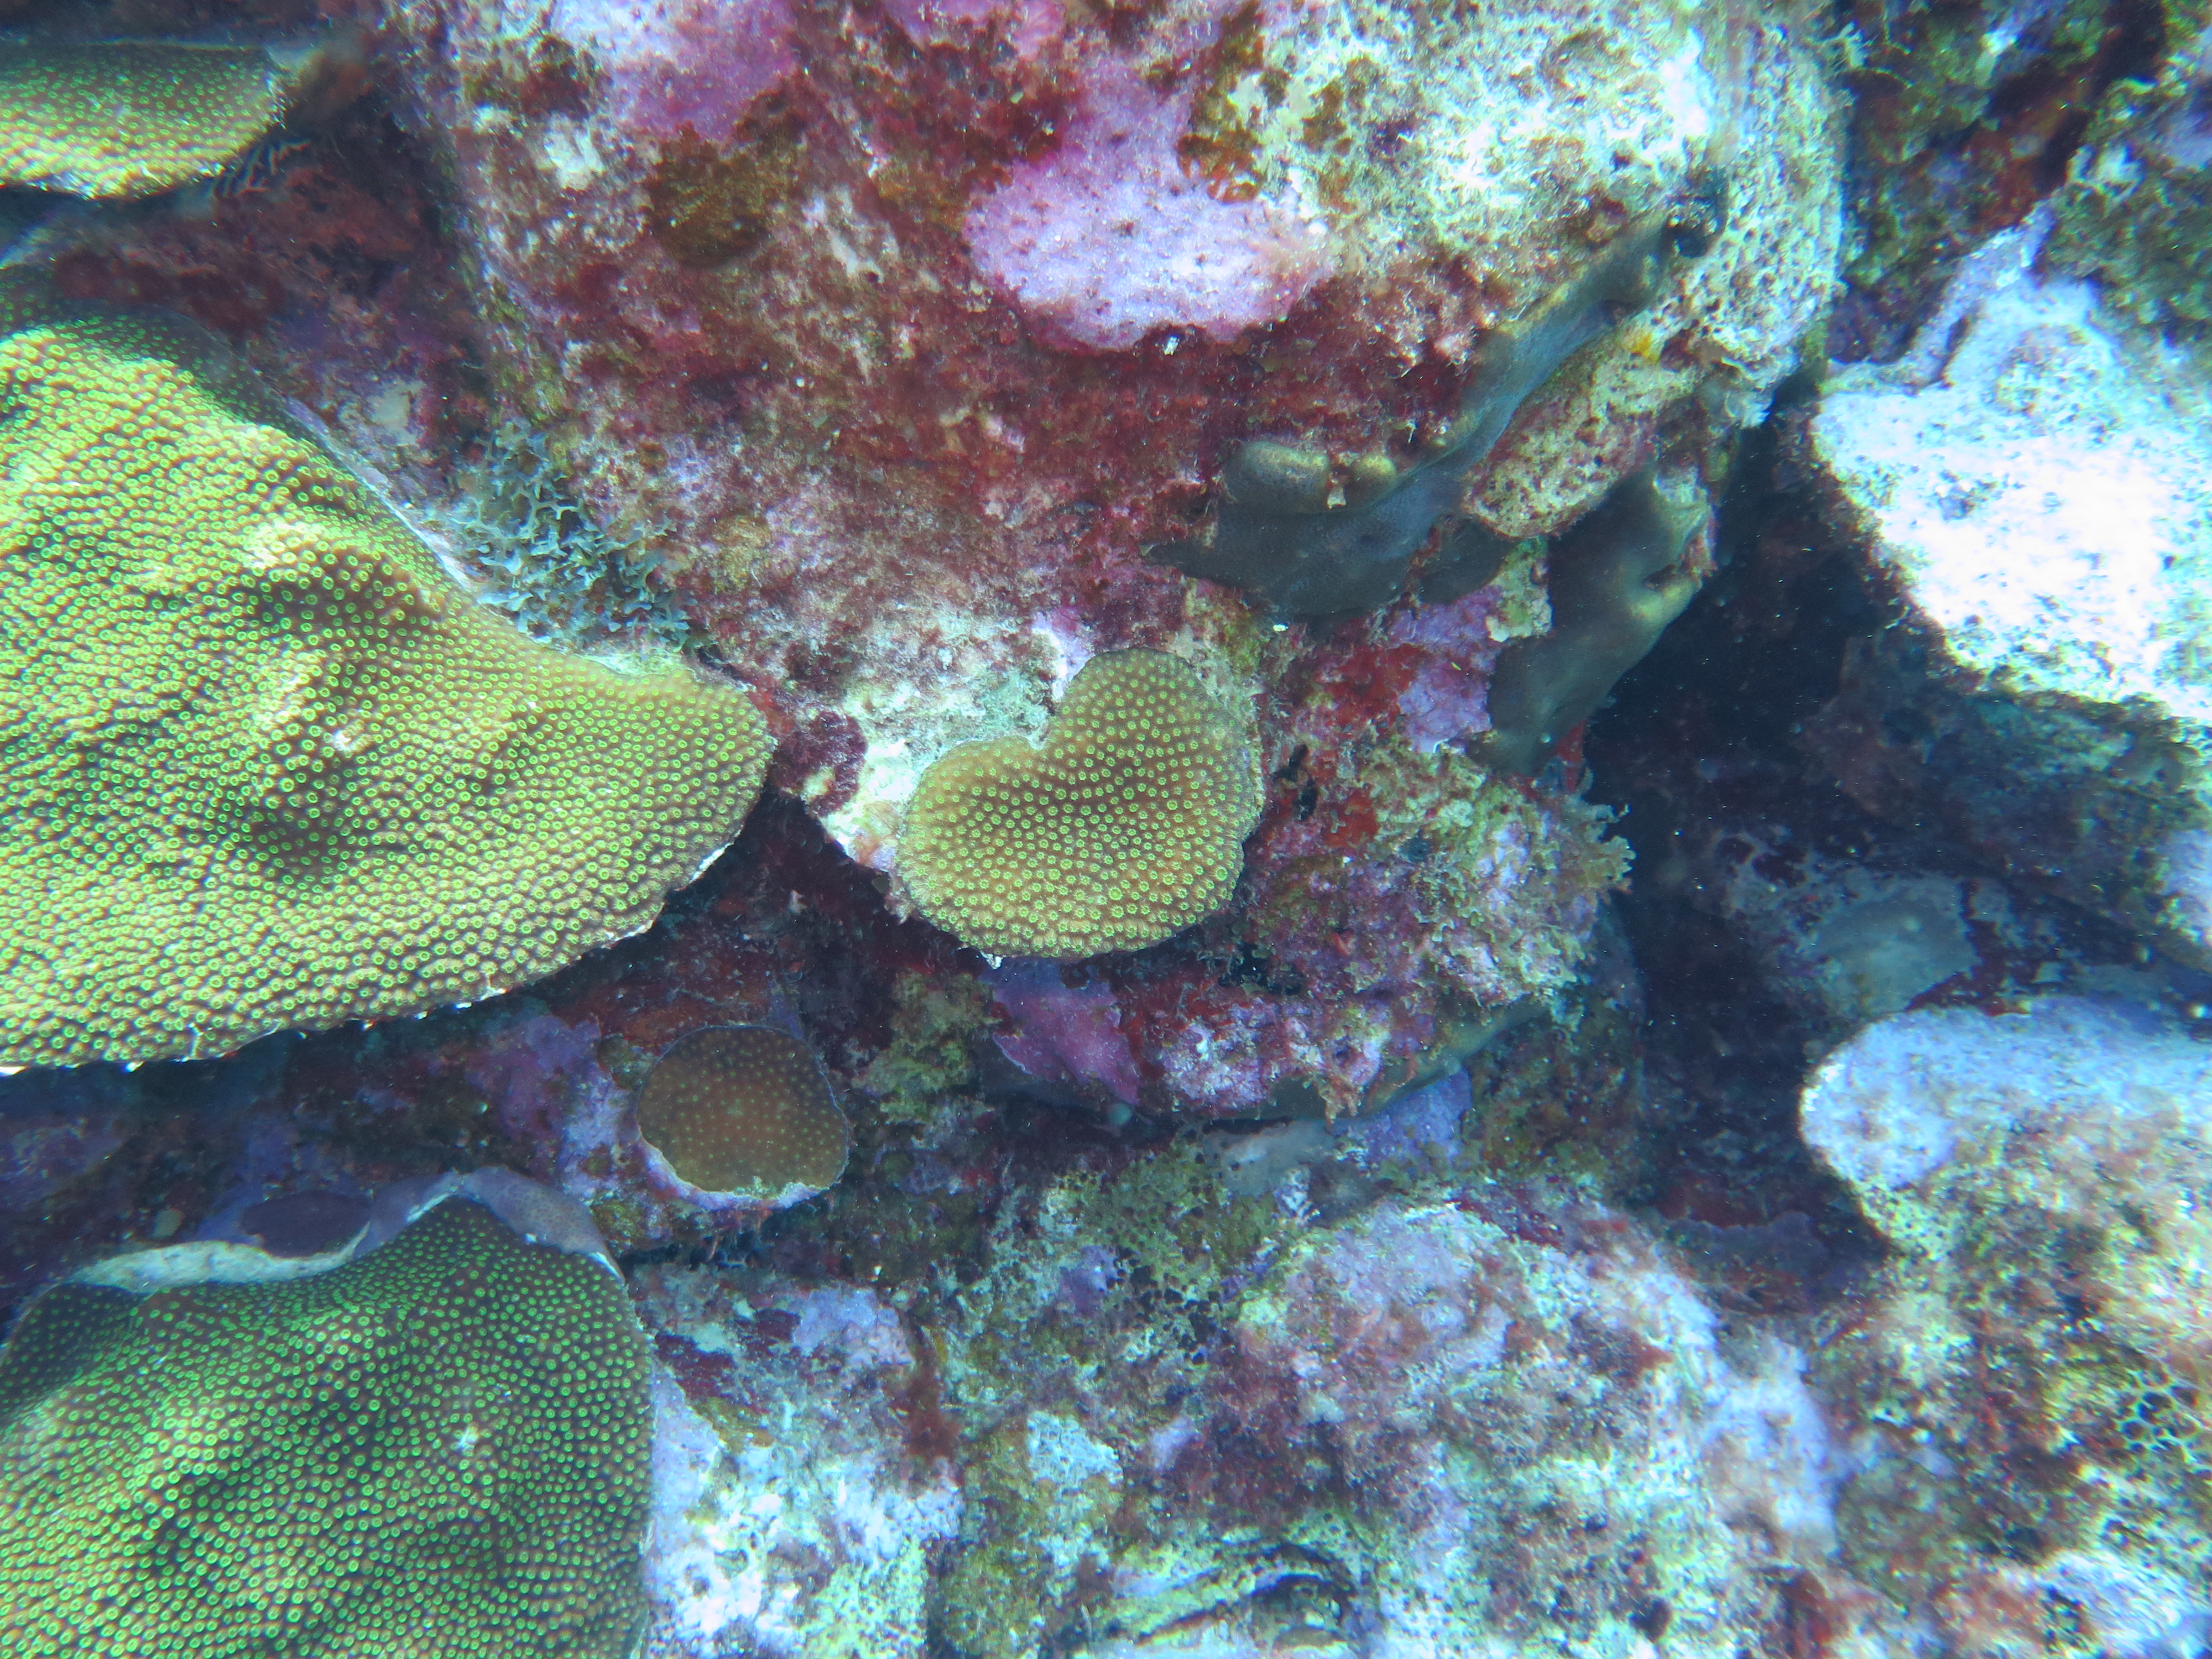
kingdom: Animalia
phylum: Cnidaria
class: Anthozoa
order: Scleractinia
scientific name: Scleractinia
